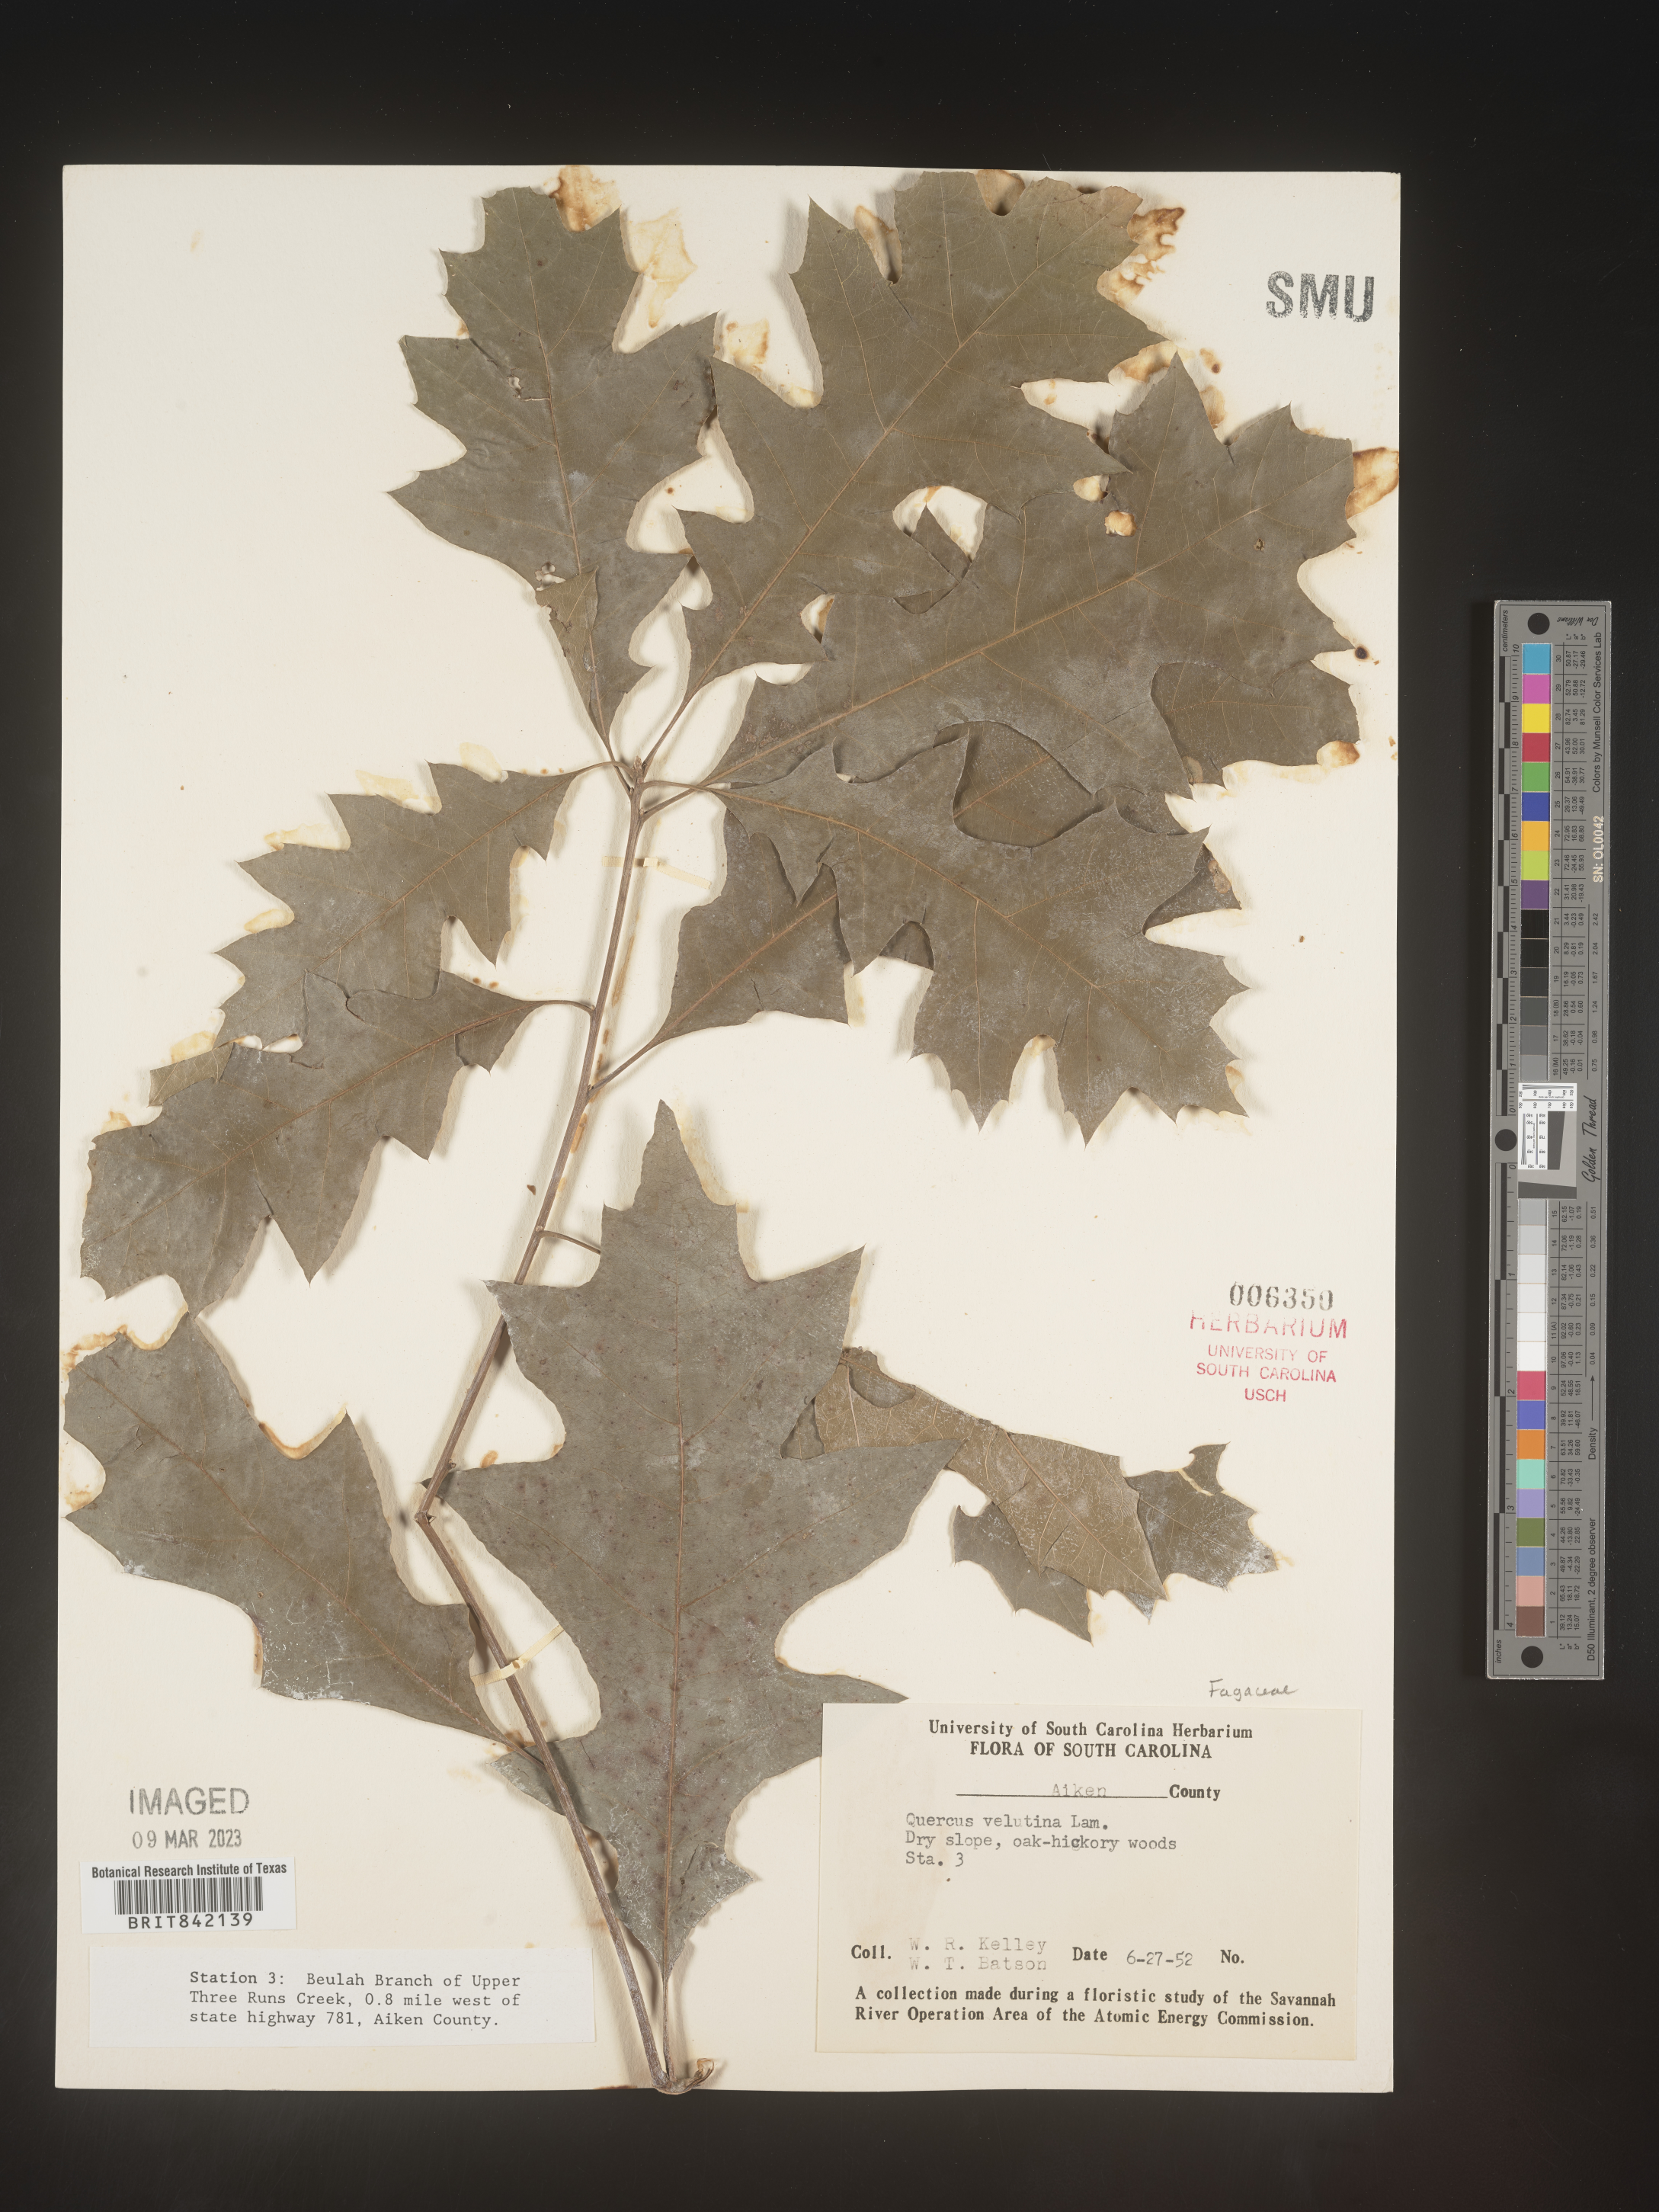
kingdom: Plantae
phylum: Tracheophyta
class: Magnoliopsida
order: Fagales
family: Fagaceae
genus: Quercus
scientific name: Quercus velutina
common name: Black oak
